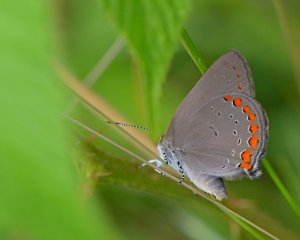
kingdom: Animalia
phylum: Arthropoda
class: Insecta
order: Lepidoptera
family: Lycaenidae
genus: Harkenclenus
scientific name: Harkenclenus titus
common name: Coral Hairstreak
